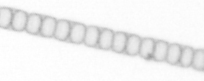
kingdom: Chromista
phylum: Ochrophyta
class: Bacillariophyceae
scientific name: Bacillariophyceae
